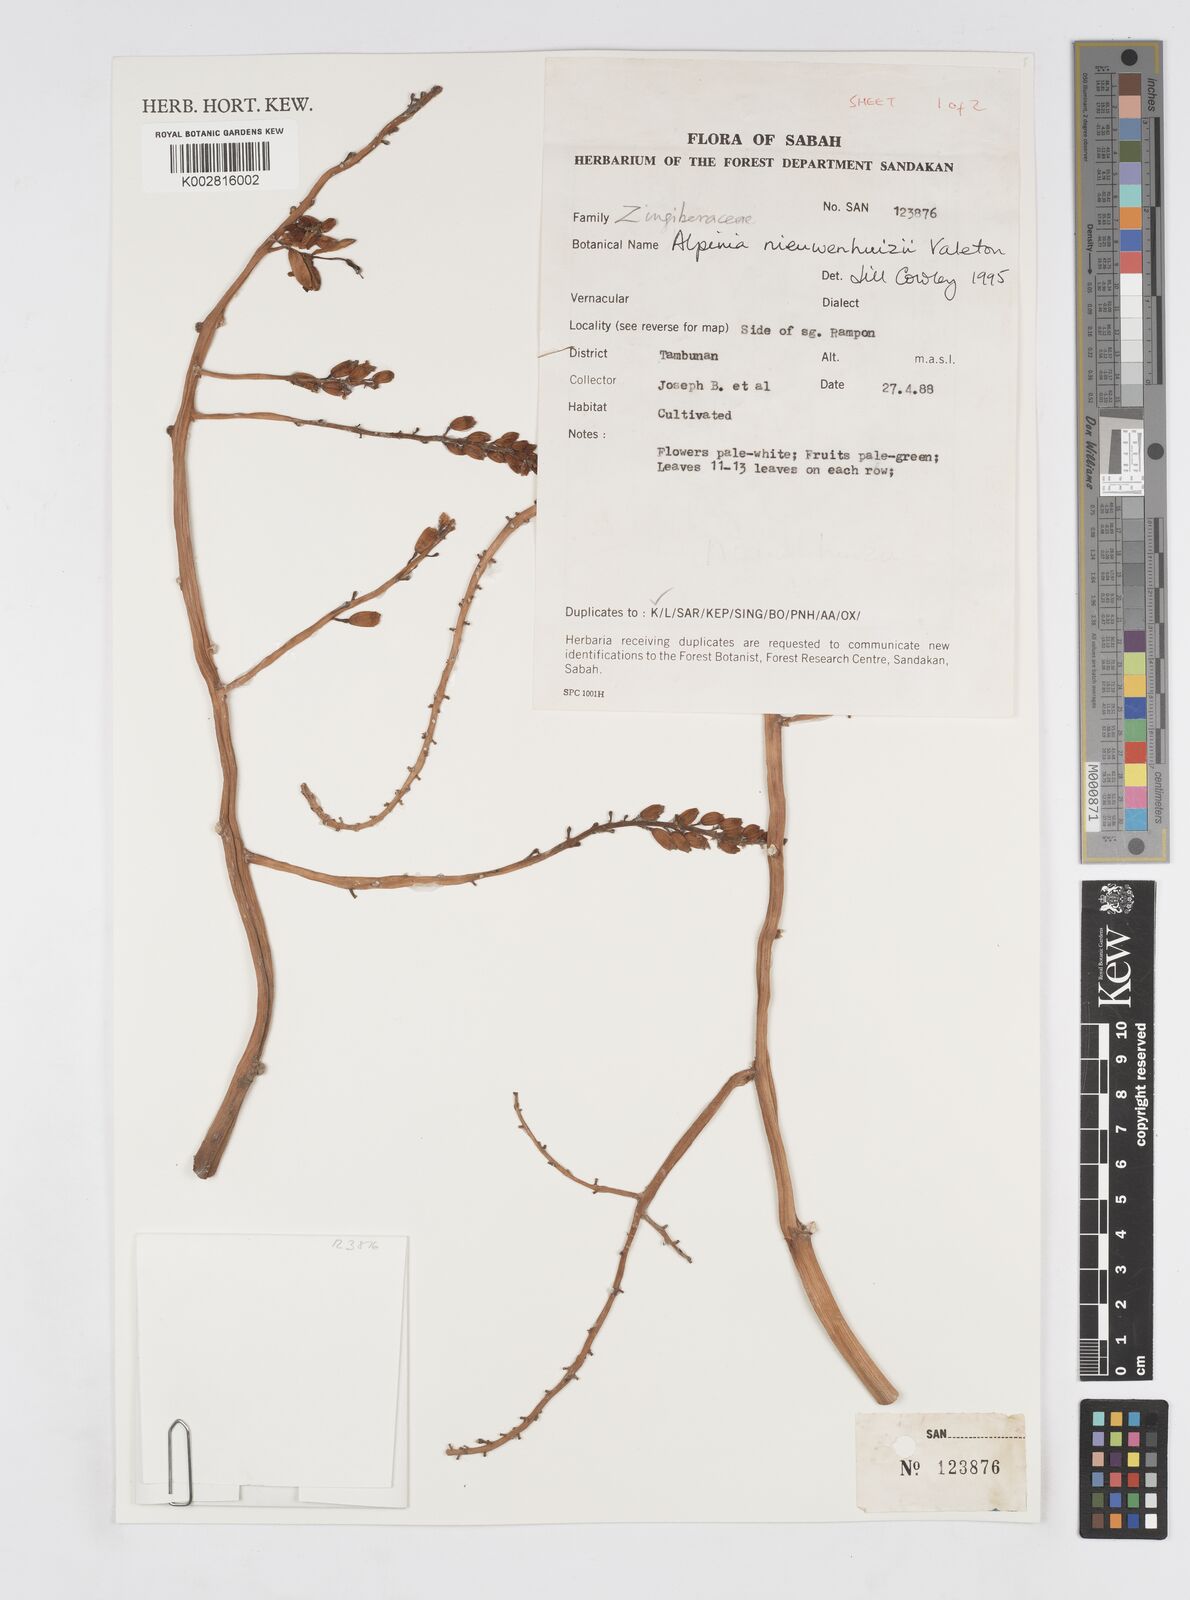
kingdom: Plantae
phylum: Tracheophyta
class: Liliopsida
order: Zingiberales
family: Zingiberaceae
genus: Alpinia
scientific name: Alpinia nieuwenhuizii
